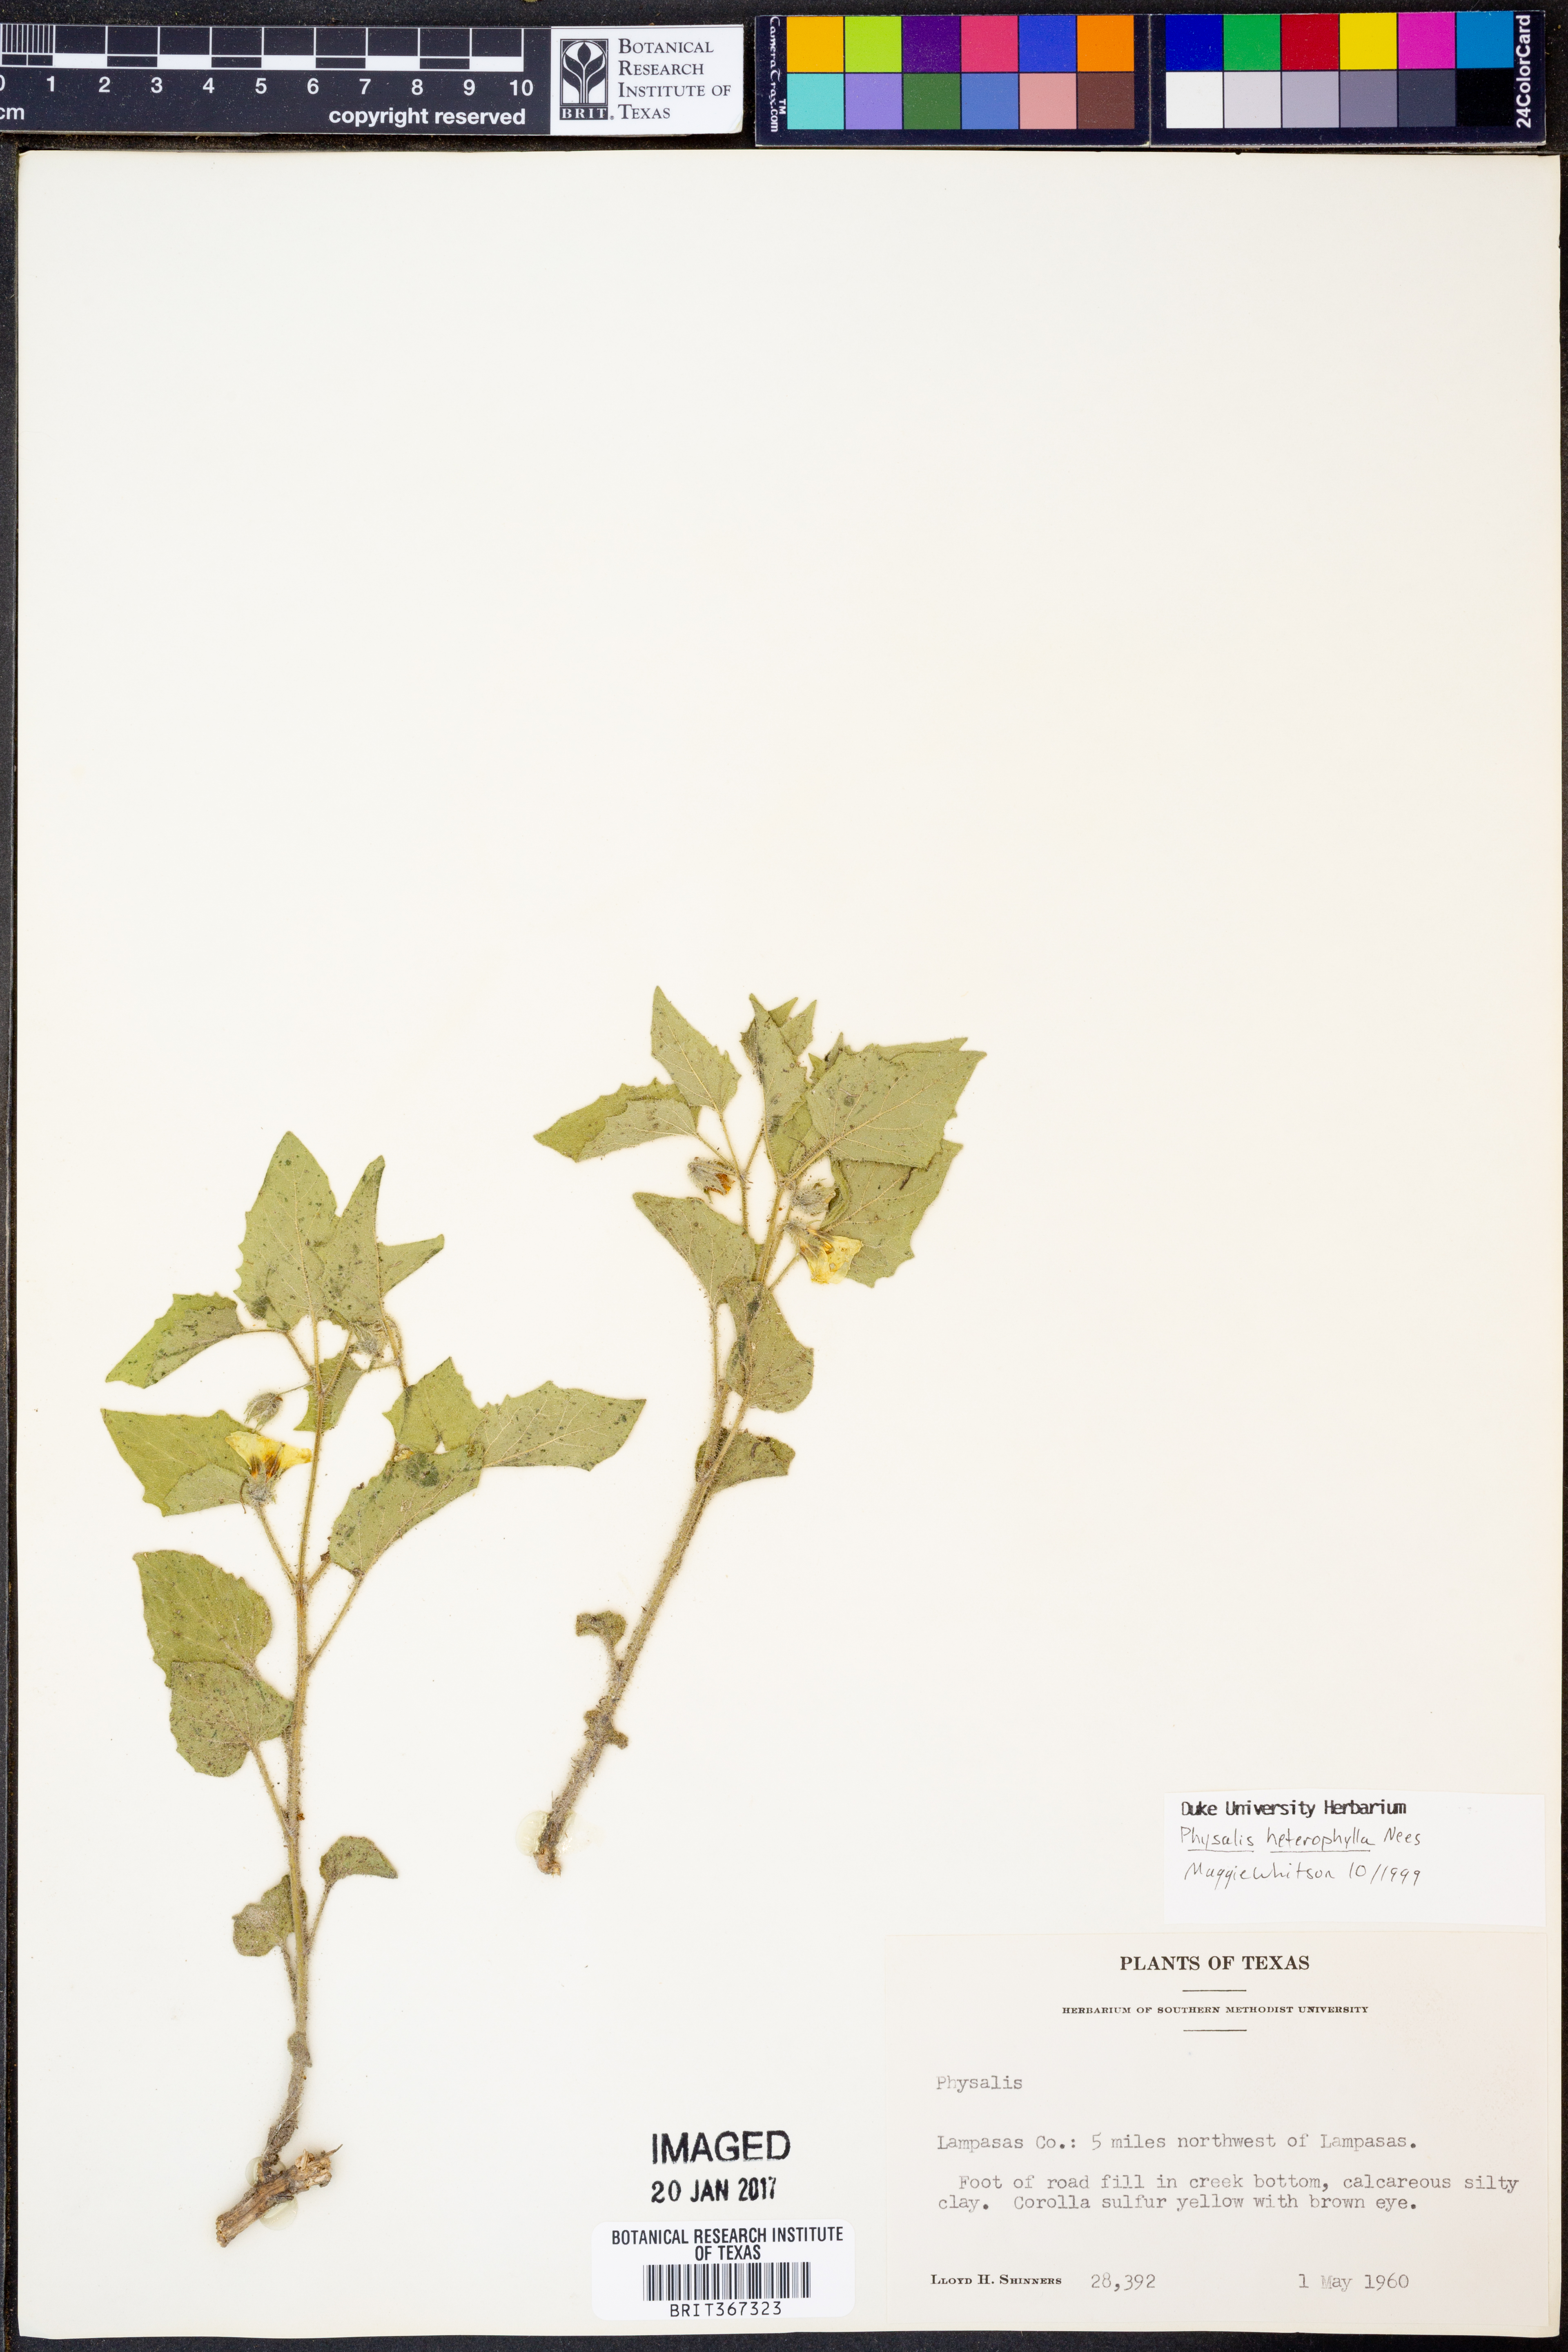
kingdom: Plantae
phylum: Tracheophyta
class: Magnoliopsida
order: Solanales
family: Solanaceae
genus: Physalis
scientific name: Physalis heterophylla
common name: Clammy ground-cherry
